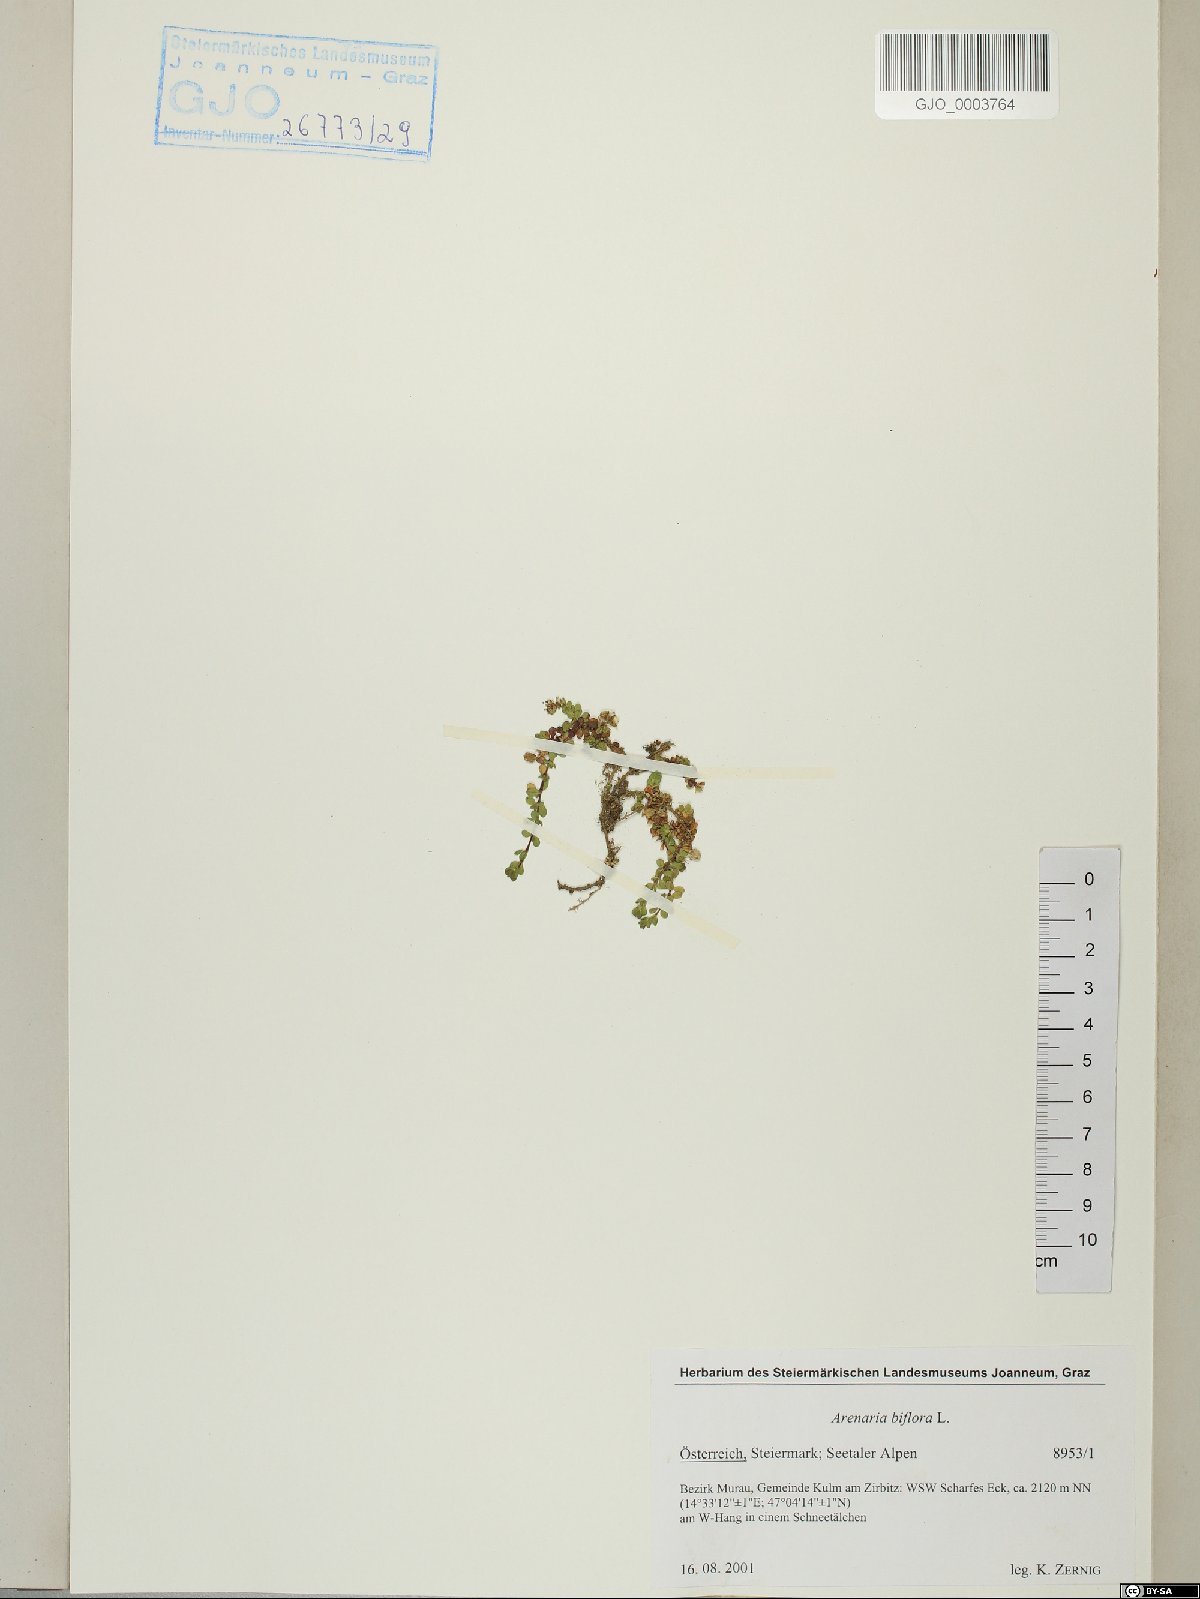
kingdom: Plantae
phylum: Tracheophyta
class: Magnoliopsida
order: Caryophyllales
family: Caryophyllaceae
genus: Arenaria
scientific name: Arenaria biflora
